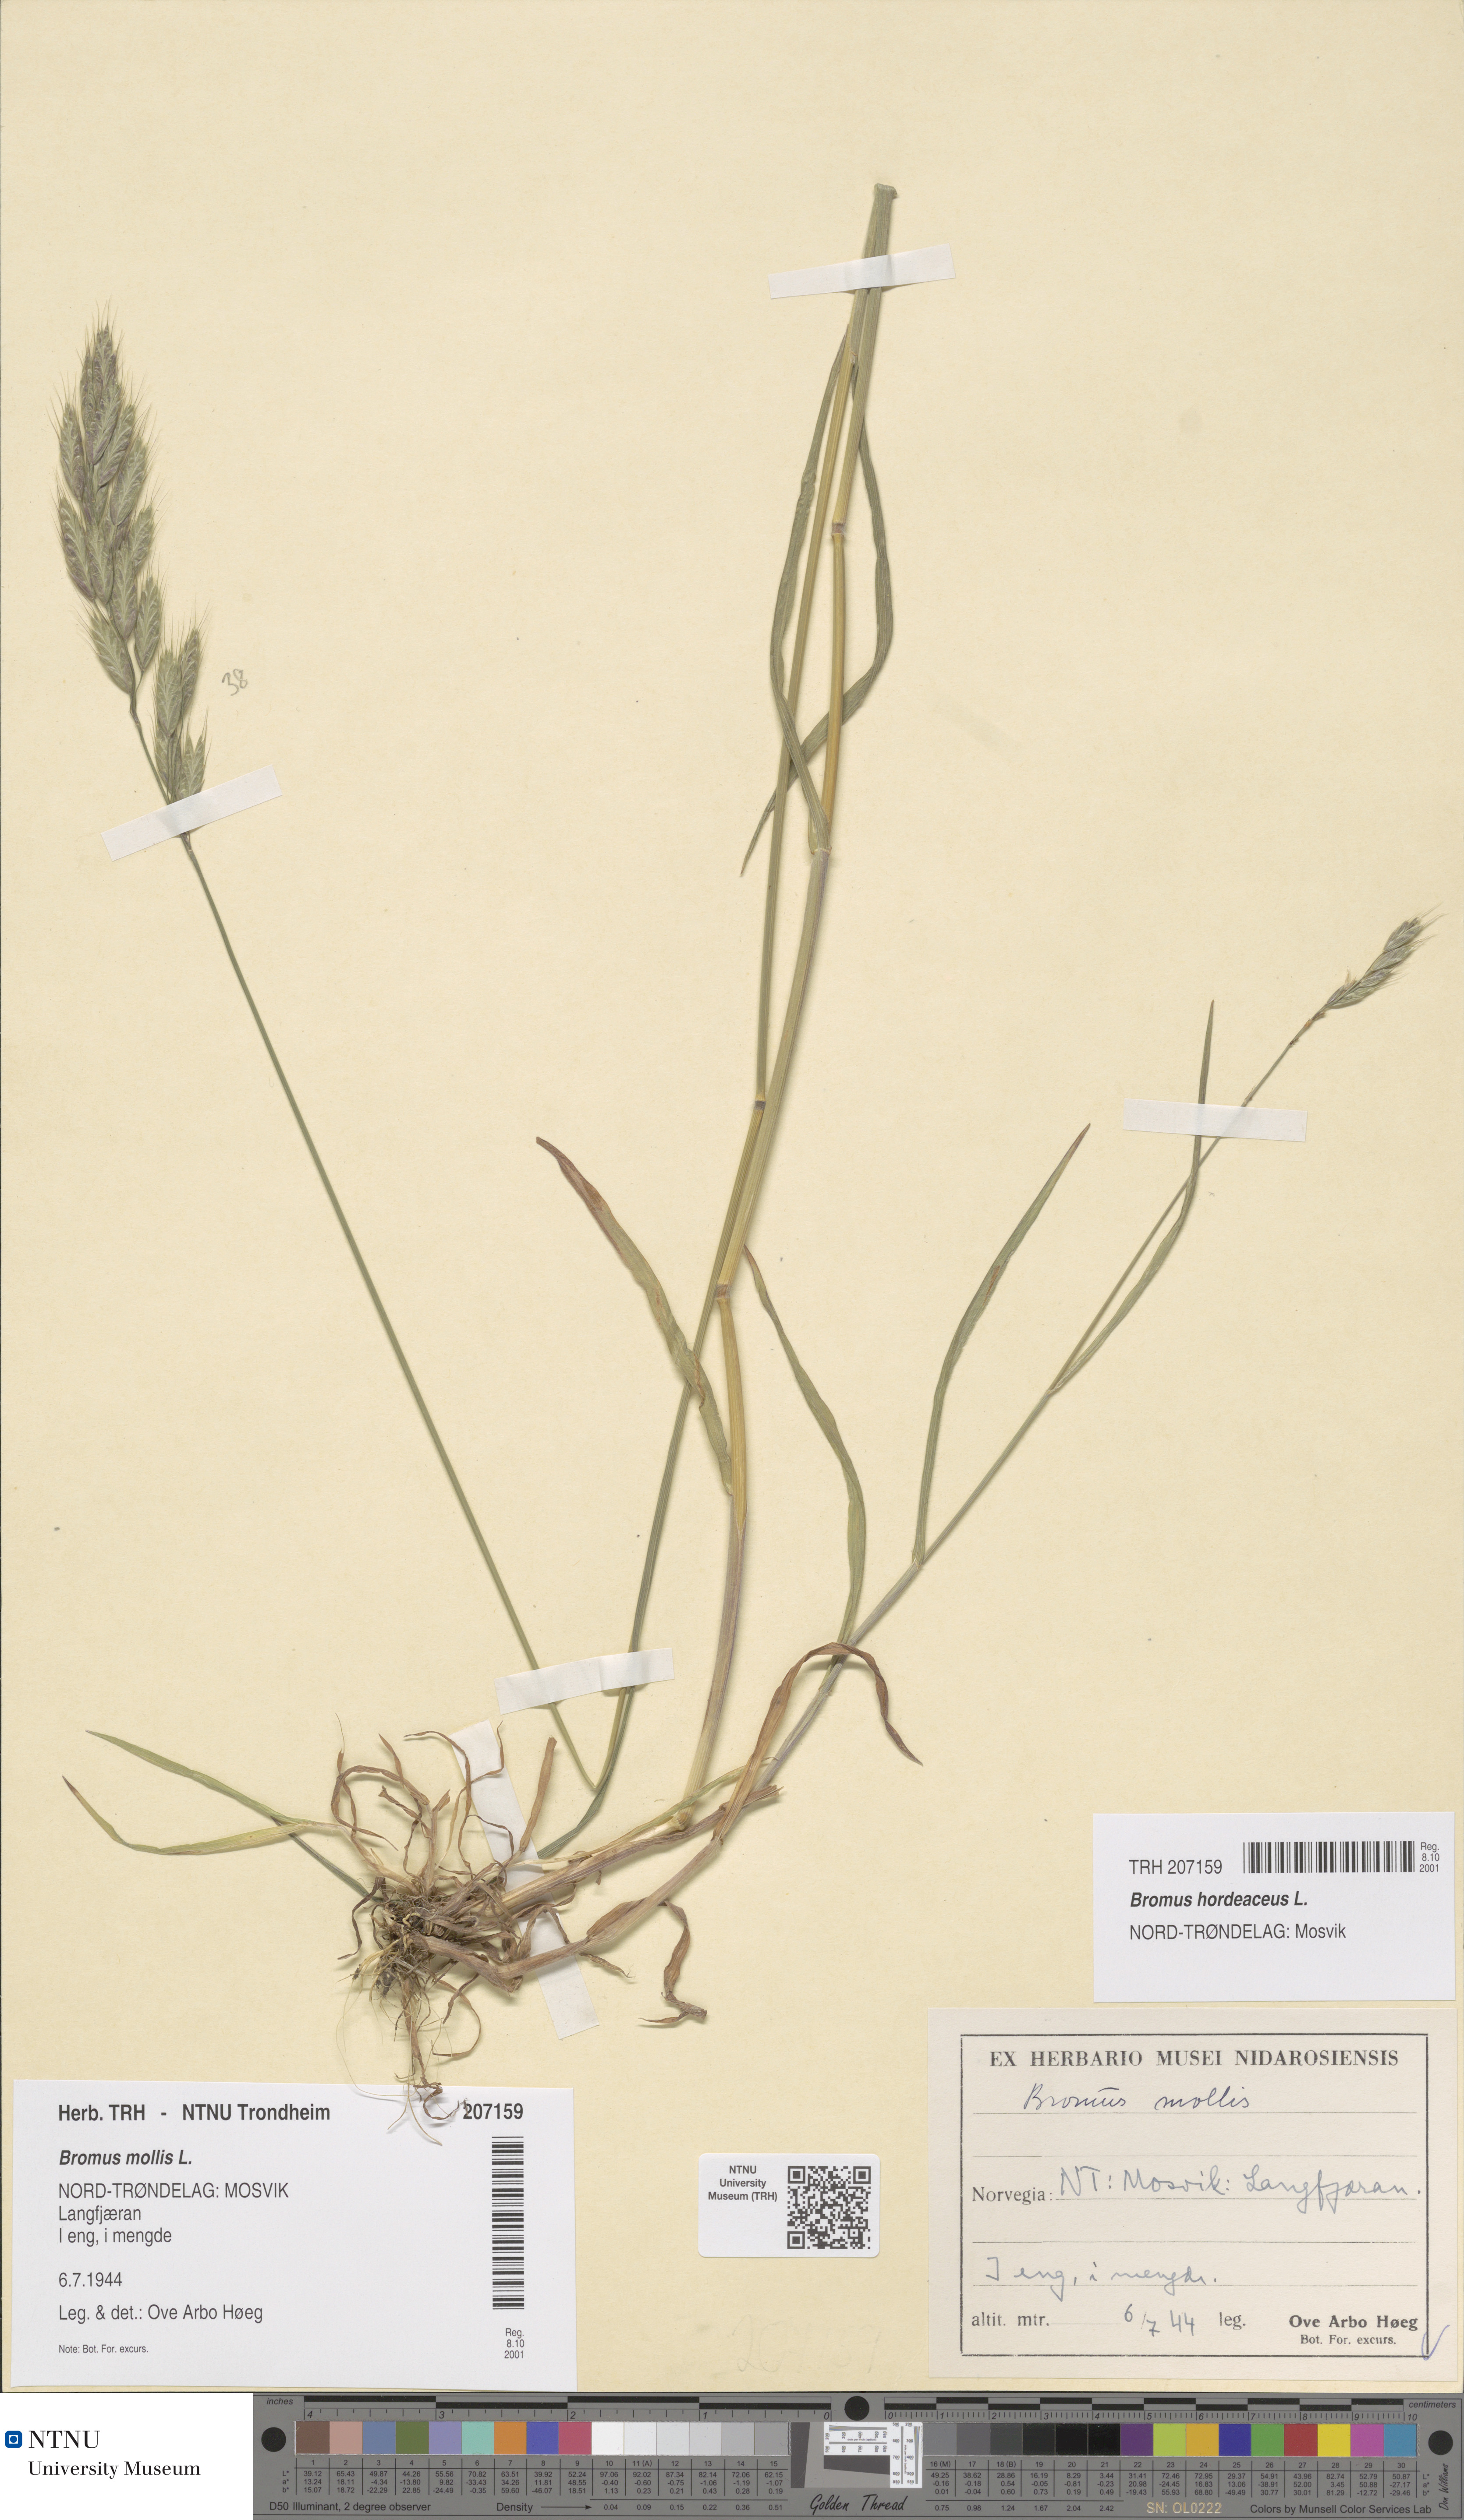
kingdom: Plantae
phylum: Tracheophyta
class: Liliopsida
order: Poales
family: Poaceae
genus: Bromus
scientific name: Bromus hordeaceus
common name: Soft brome
